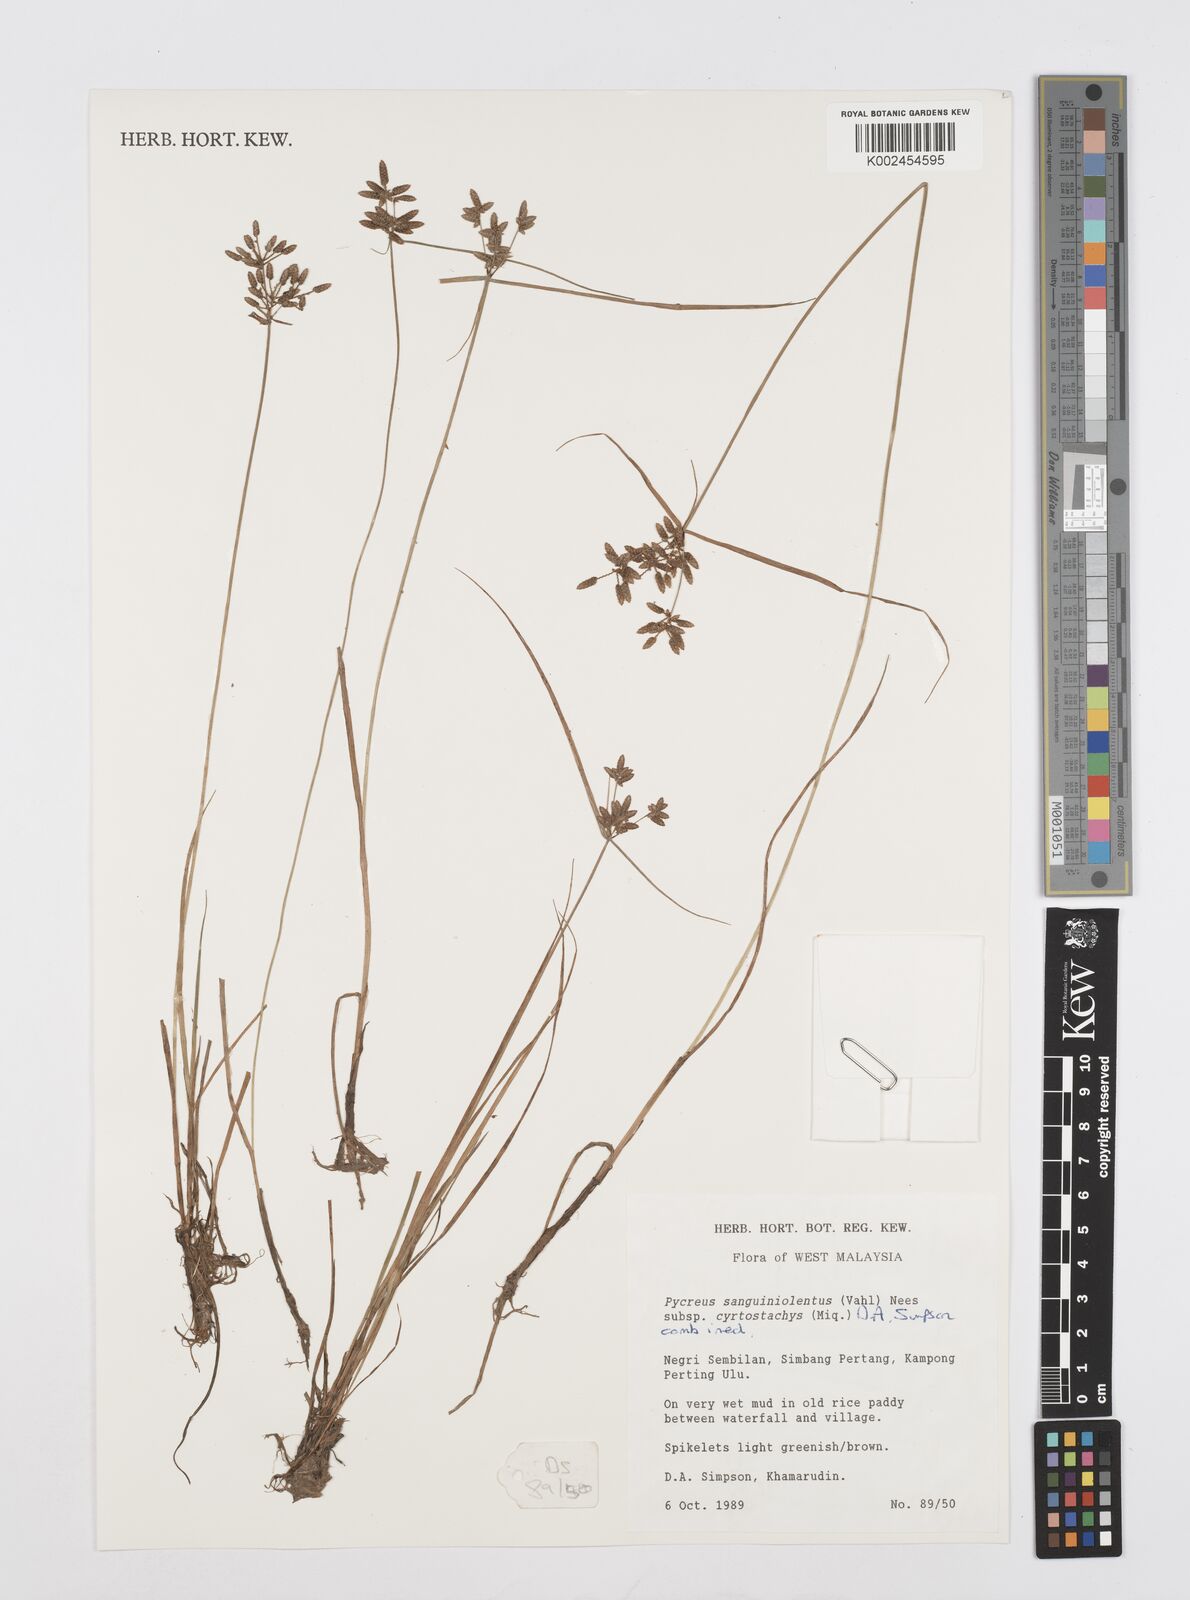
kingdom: Plantae
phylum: Tracheophyta
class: Liliopsida
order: Poales
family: Cyperaceae
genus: Cyperus
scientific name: Cyperus sanguinolentus
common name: Purpleglume flatsedge
